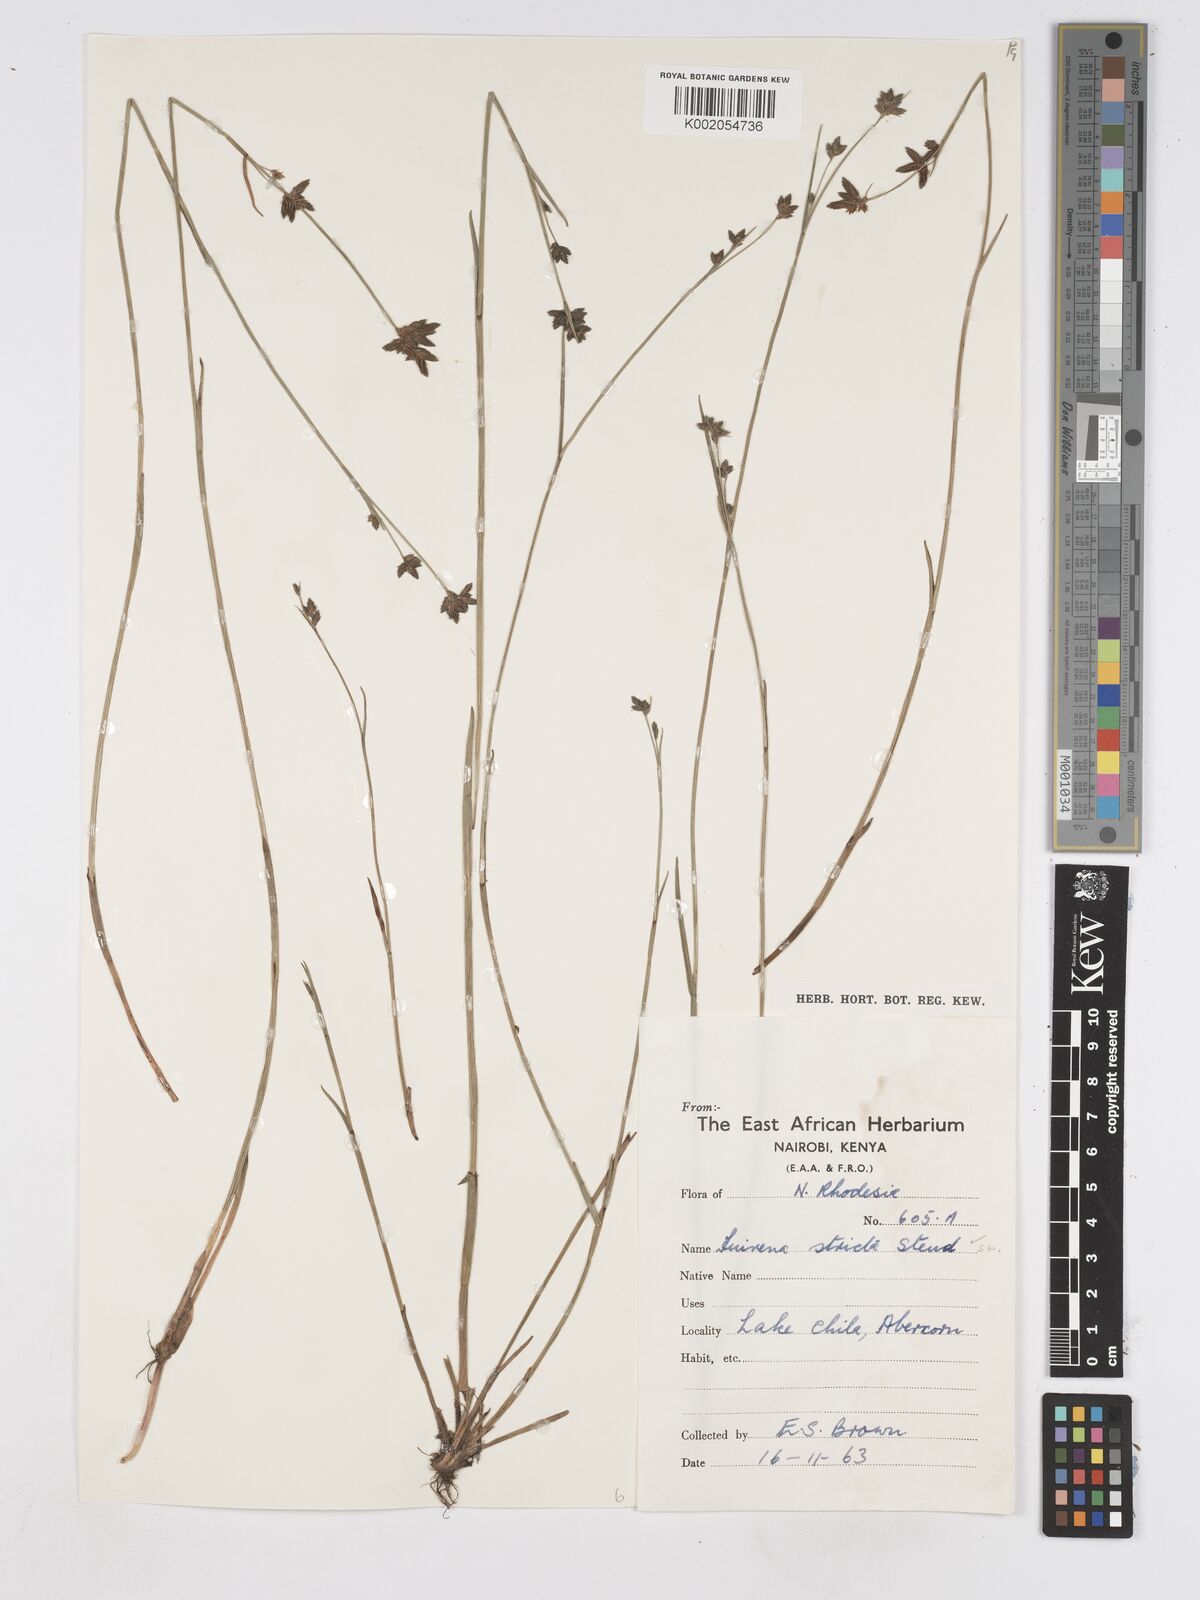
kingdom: Plantae
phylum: Tracheophyta
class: Liliopsida
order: Poales
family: Cyperaceae
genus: Fuirena
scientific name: Fuirena stricta
